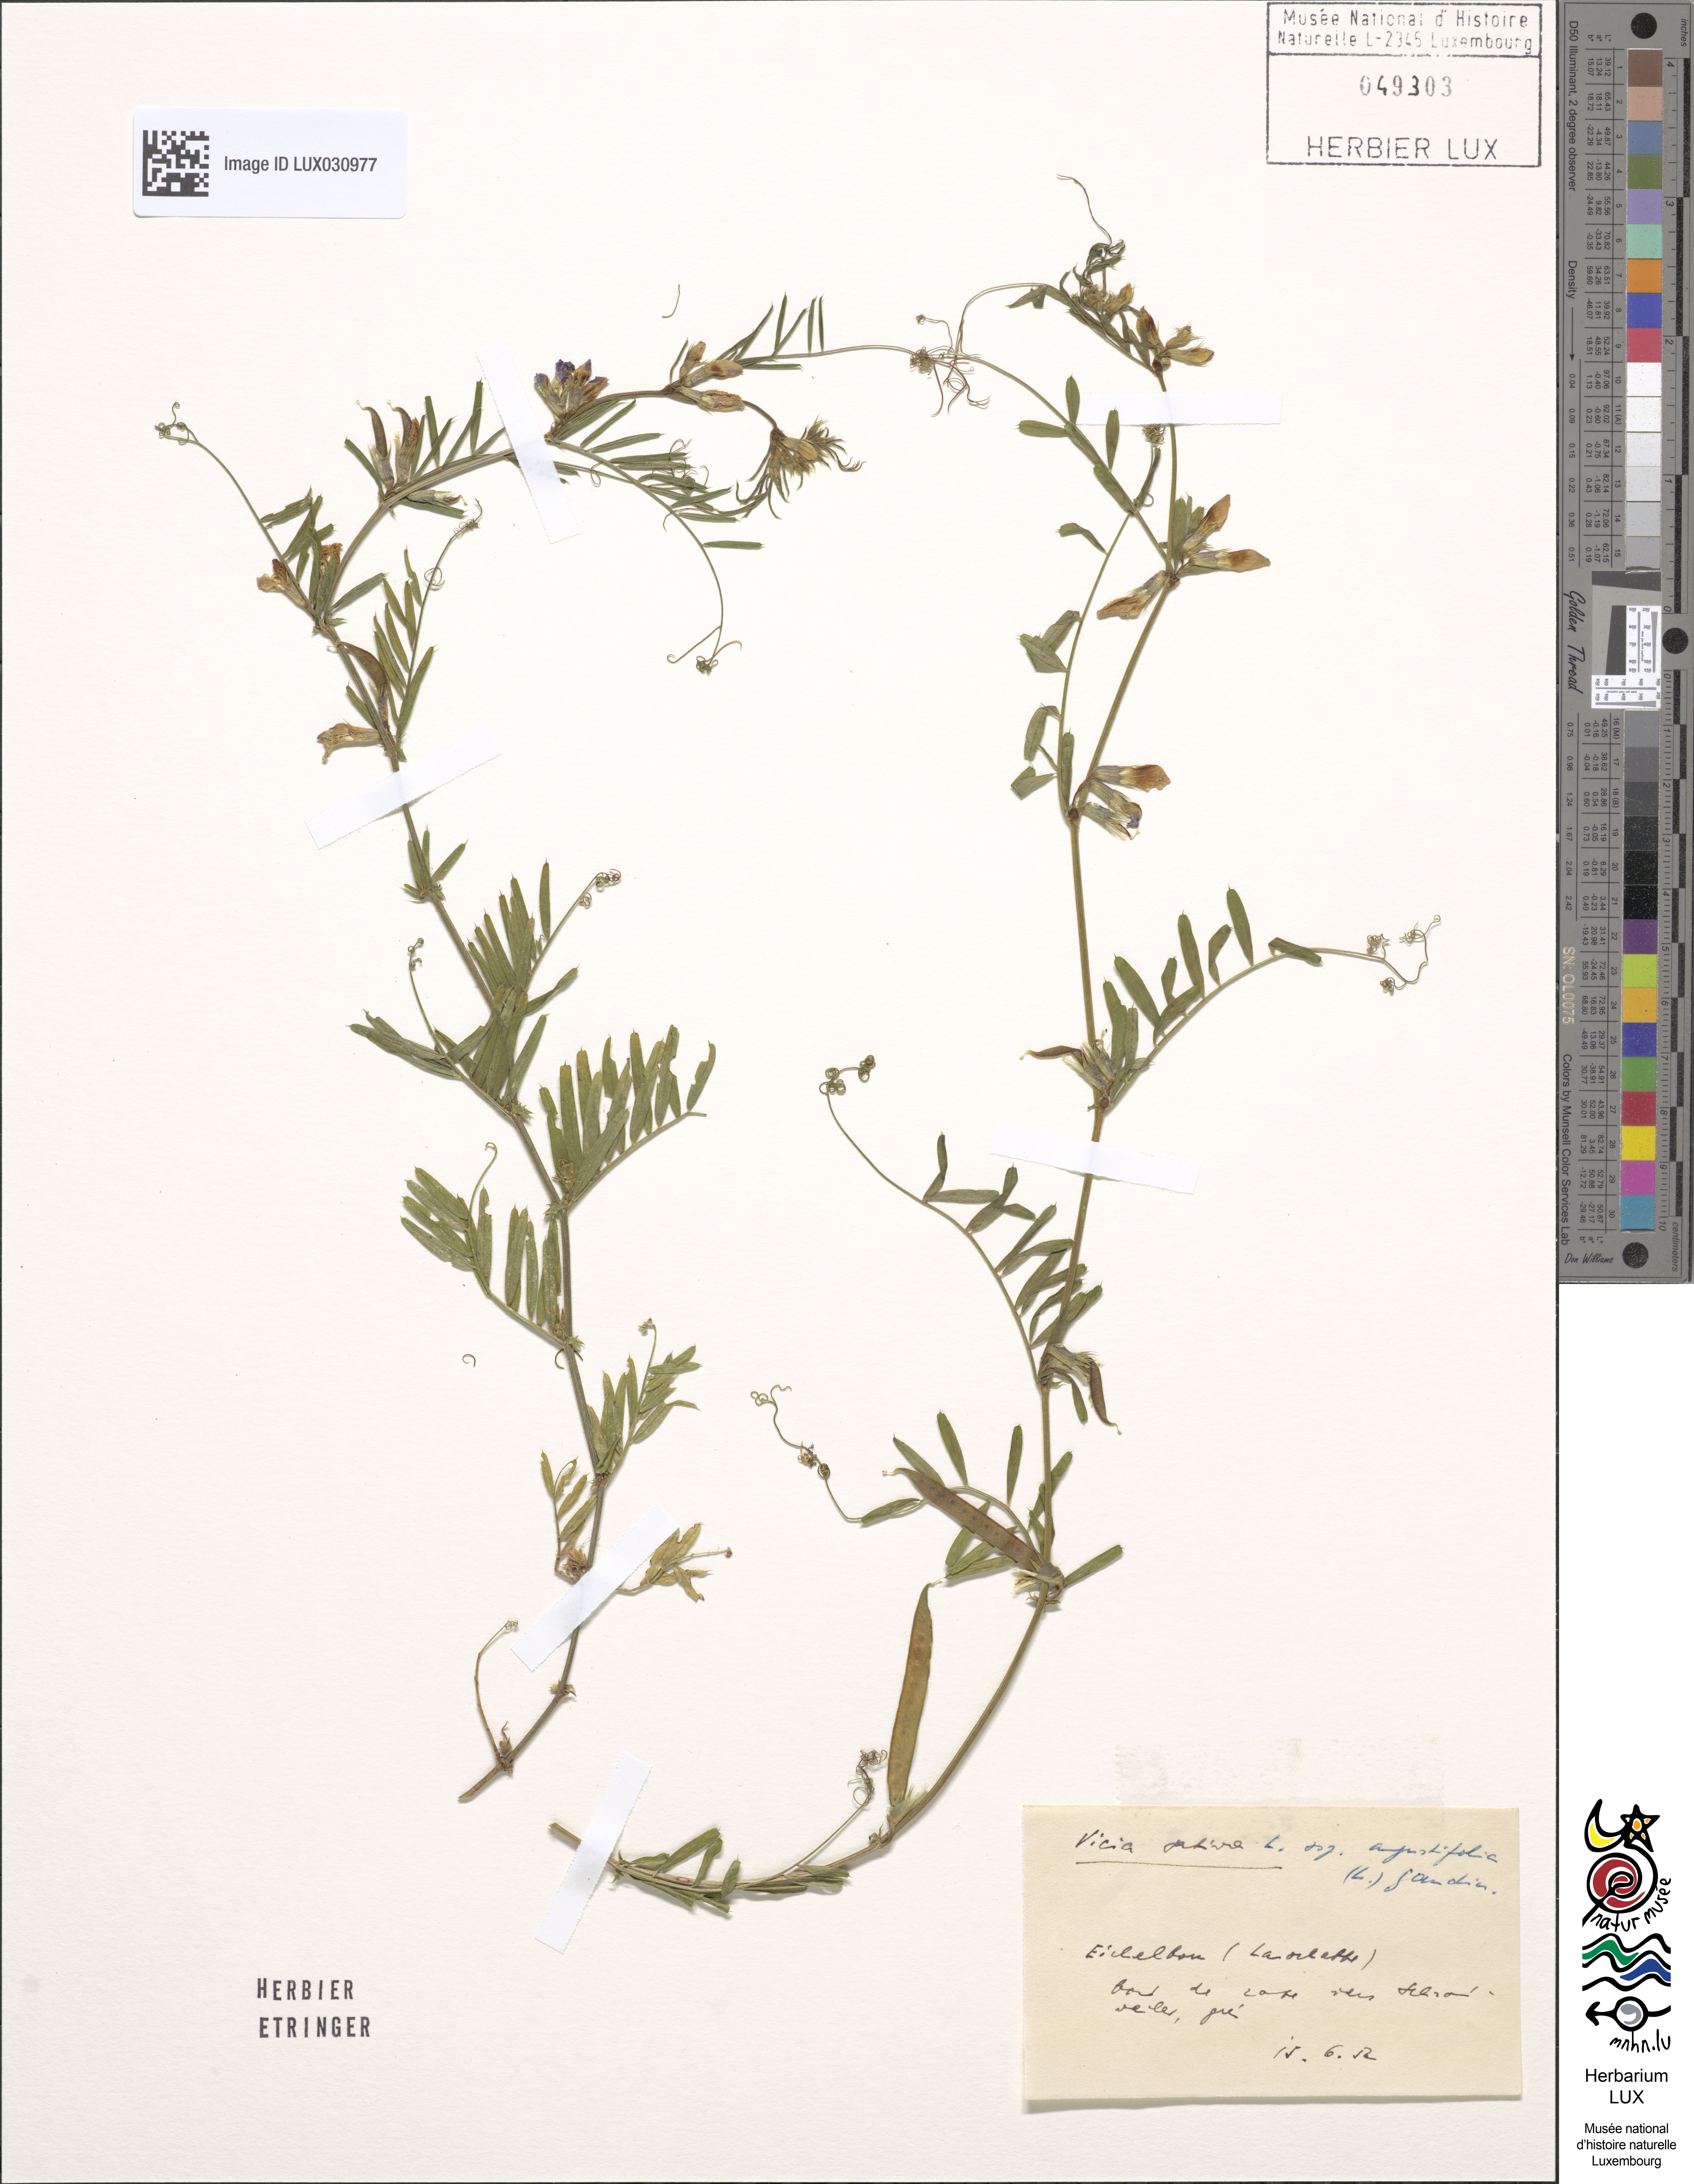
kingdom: Plantae
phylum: Tracheophyta
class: Magnoliopsida
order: Fabales
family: Fabaceae
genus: Vicia
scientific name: Vicia sativa
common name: Garden vetch
